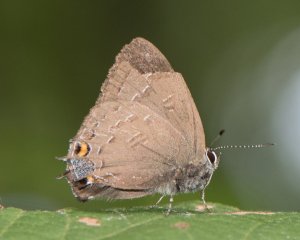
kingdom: Animalia
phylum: Arthropoda
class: Insecta
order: Lepidoptera
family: Lycaenidae
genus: Satyrium
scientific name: Satyrium calanus
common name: Banded Hairstreak
